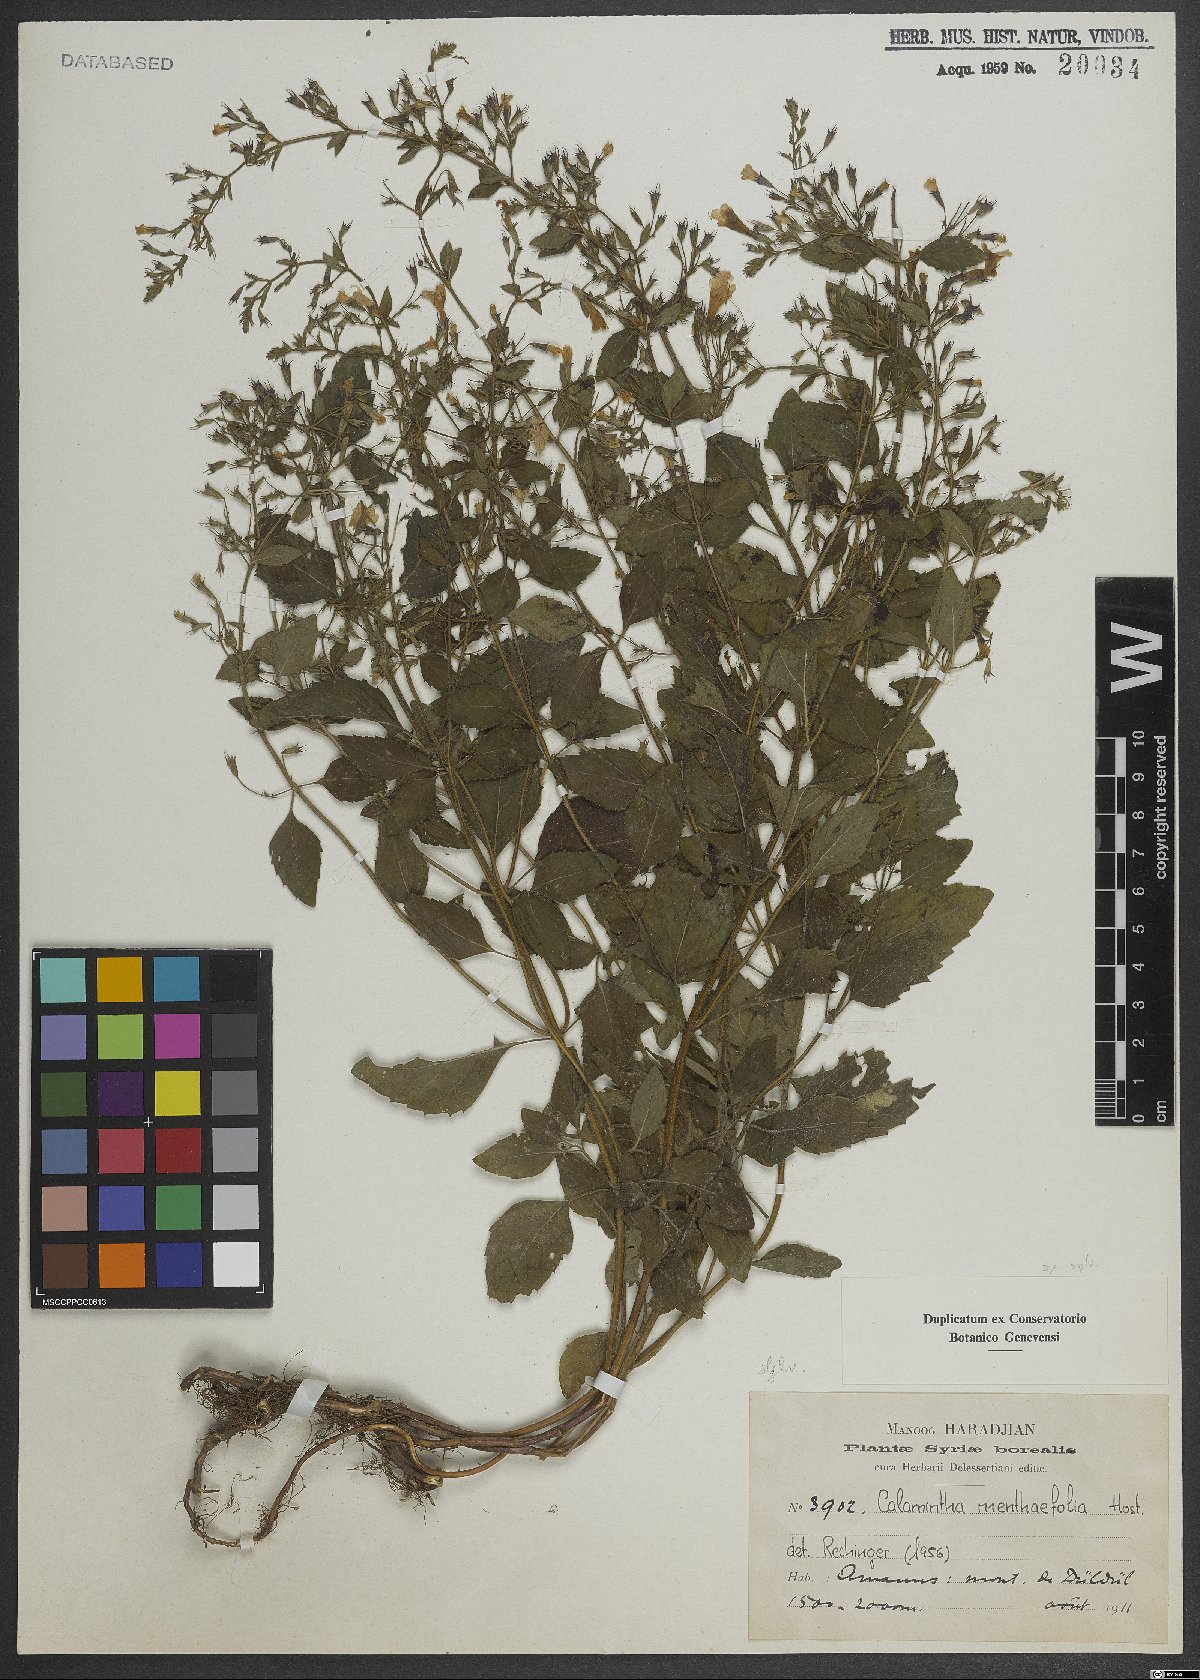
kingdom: Plantae
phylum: Tracheophyta
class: Magnoliopsida
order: Lamiales
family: Lamiaceae
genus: Calamintha
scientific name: Calamintha
